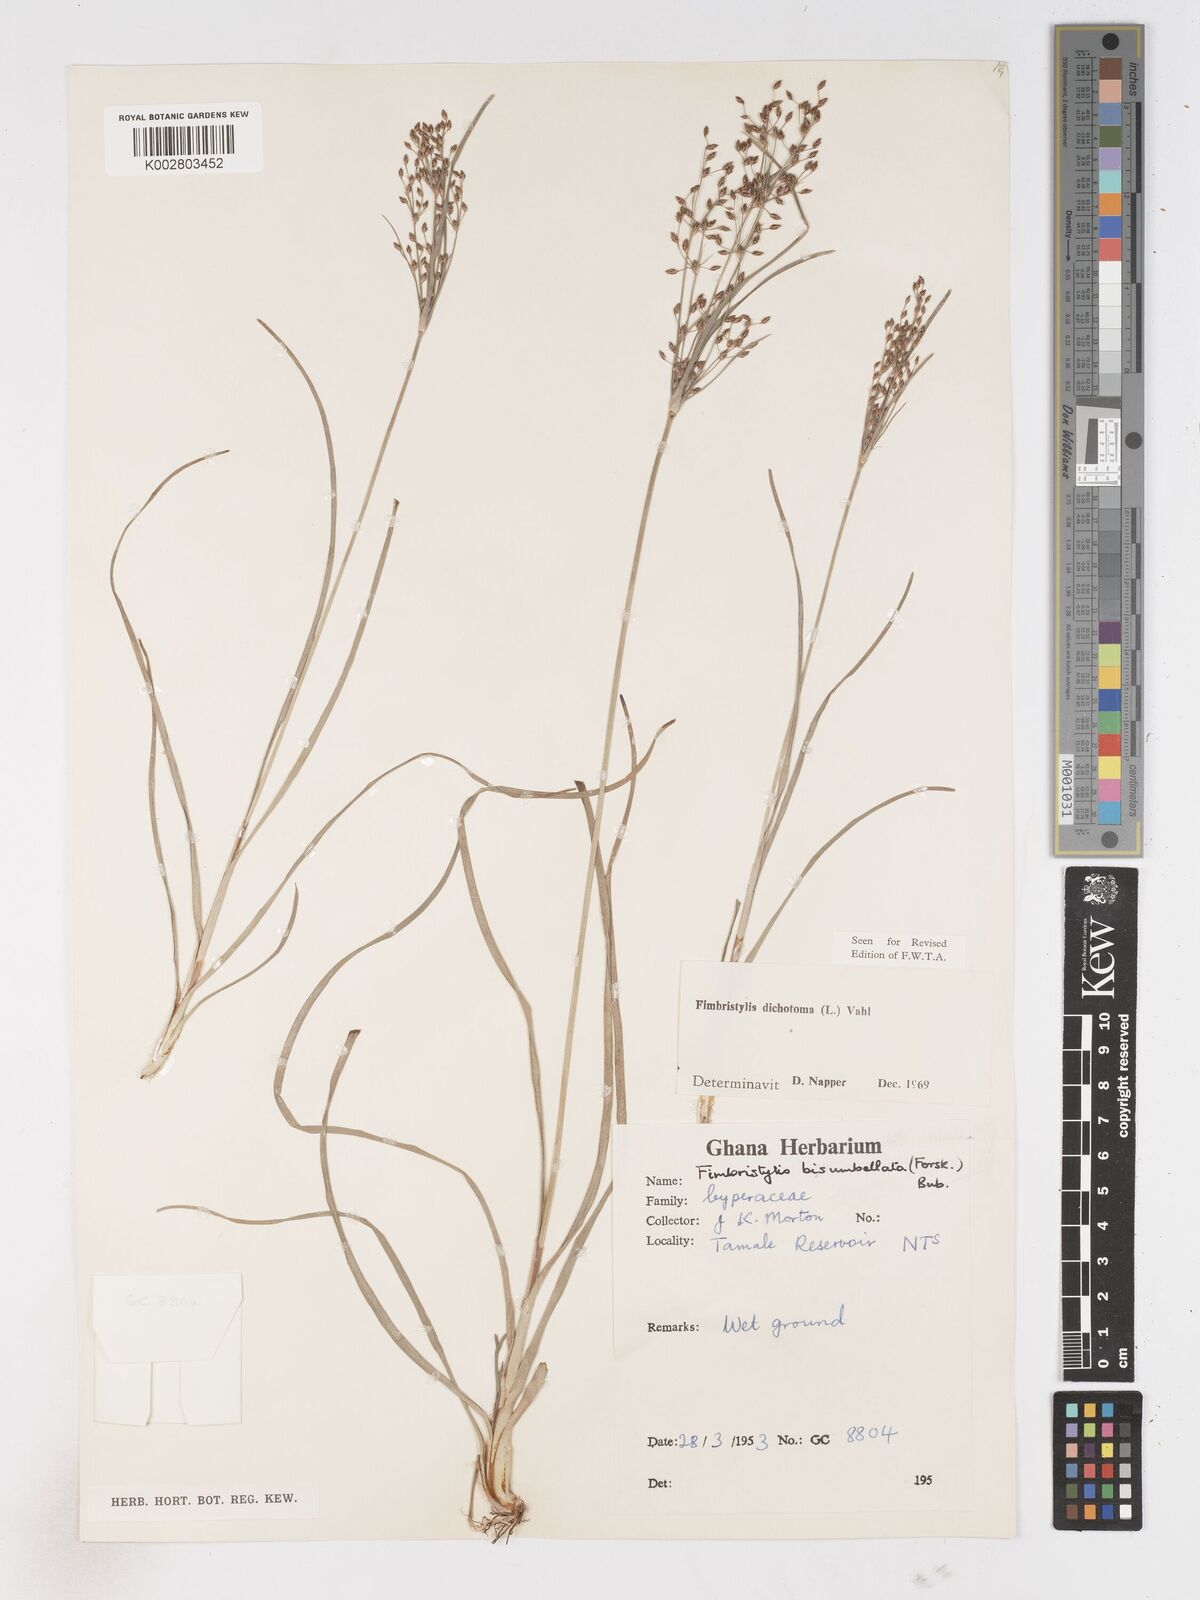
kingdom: Plantae
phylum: Tracheophyta
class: Liliopsida
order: Poales
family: Cyperaceae
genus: Fimbristylis
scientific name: Fimbristylis dichotoma
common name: Forked fimbry
